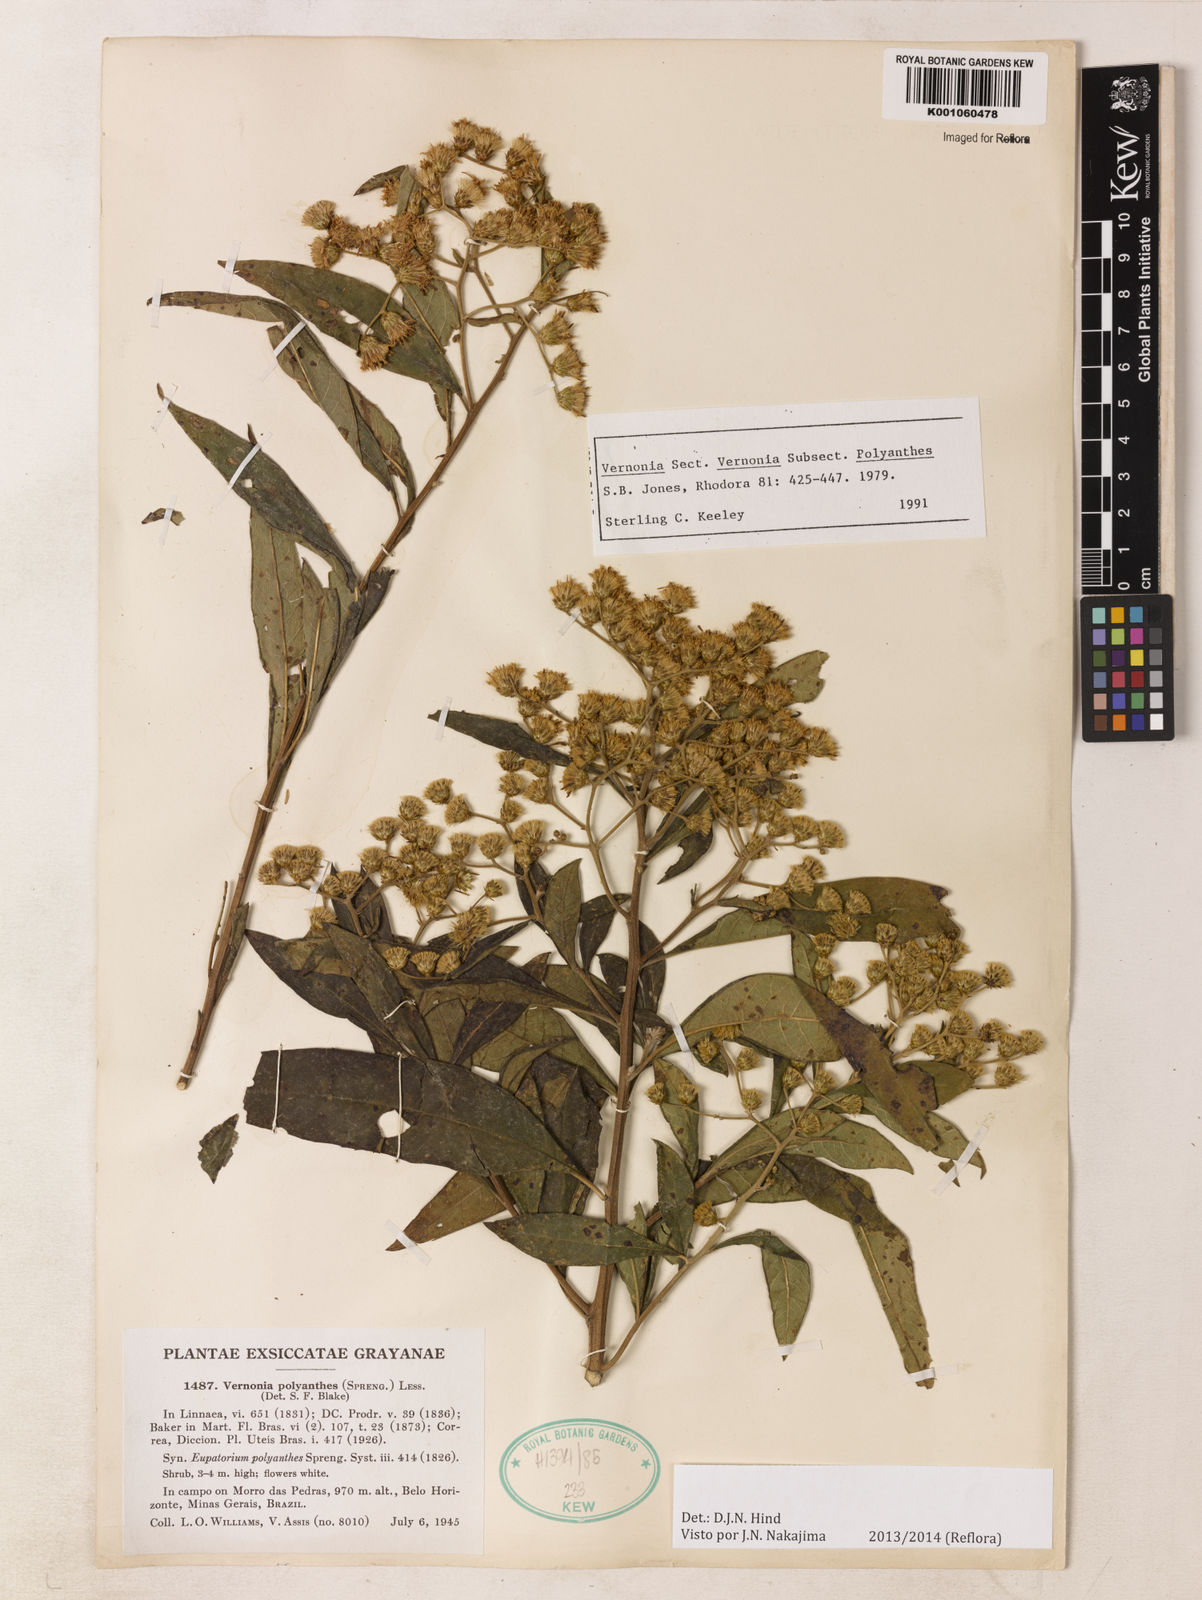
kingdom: Plantae
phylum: Tracheophyta
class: Magnoliopsida
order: Asterales
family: Asteraceae
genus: Vernonanthura
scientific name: Vernonanthura polyanthes
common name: Tree aster
